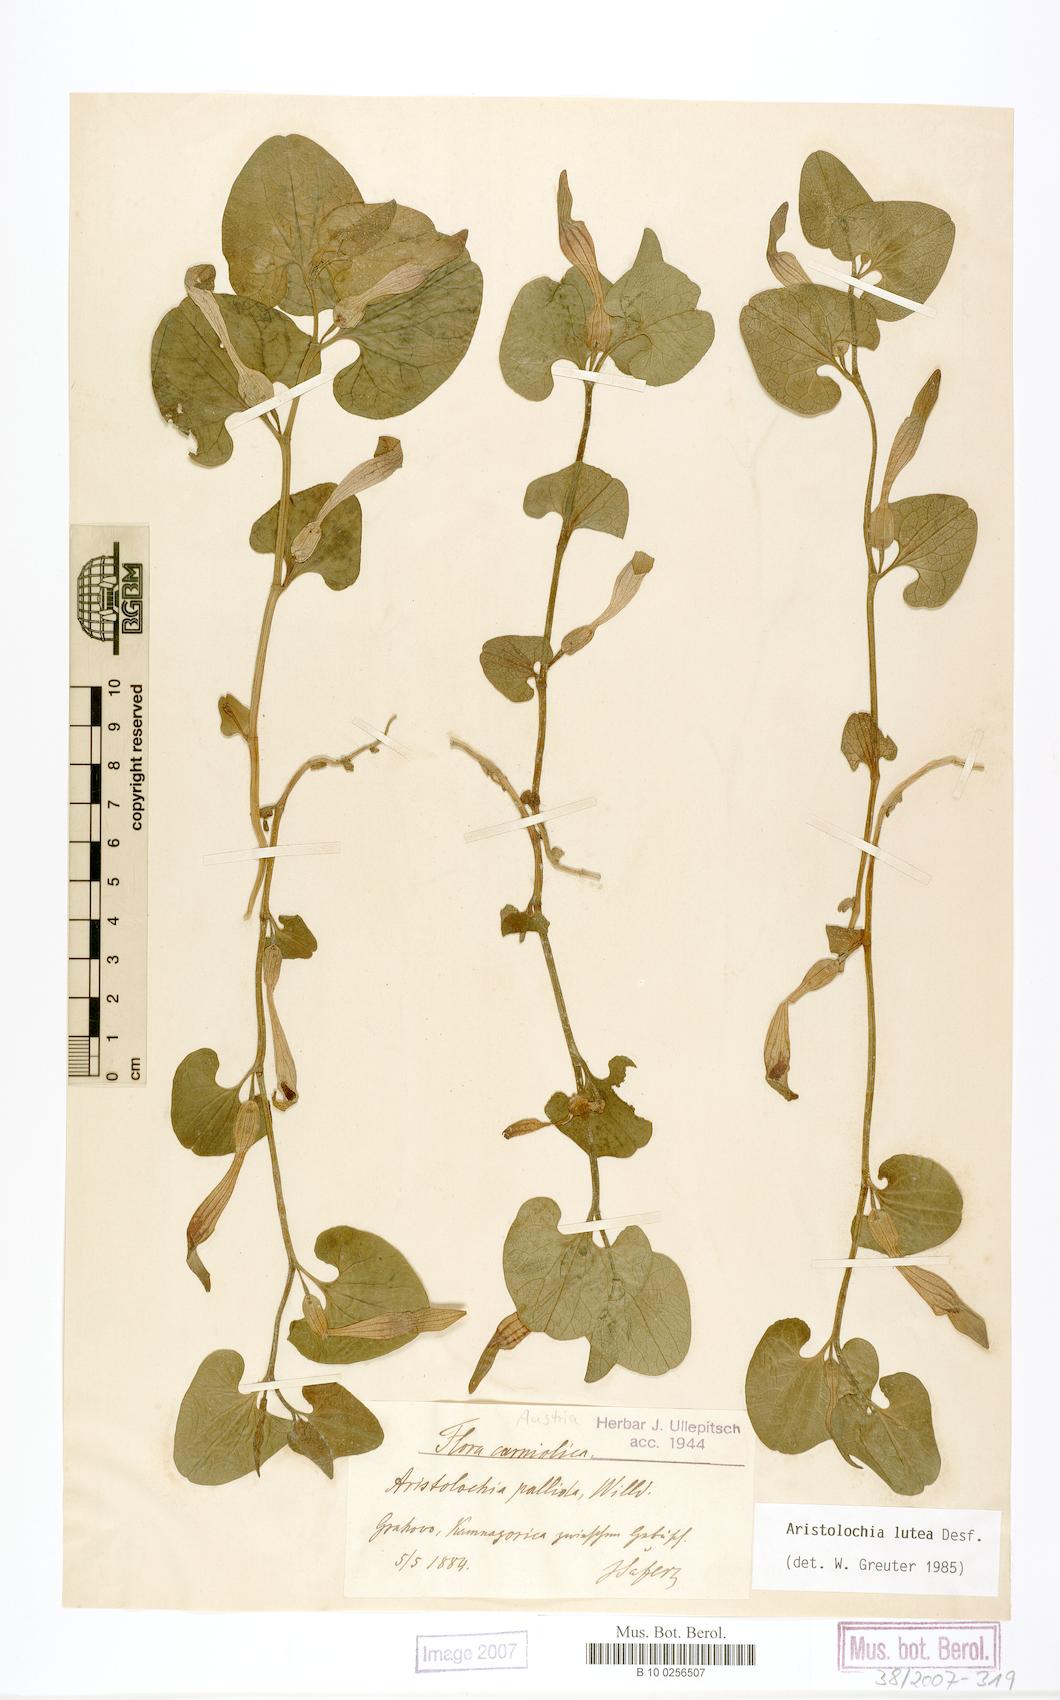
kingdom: Plantae
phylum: Tracheophyta
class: Magnoliopsida
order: Piperales
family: Aristolochiaceae
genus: Aristolochia
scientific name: Aristolochia lutea
